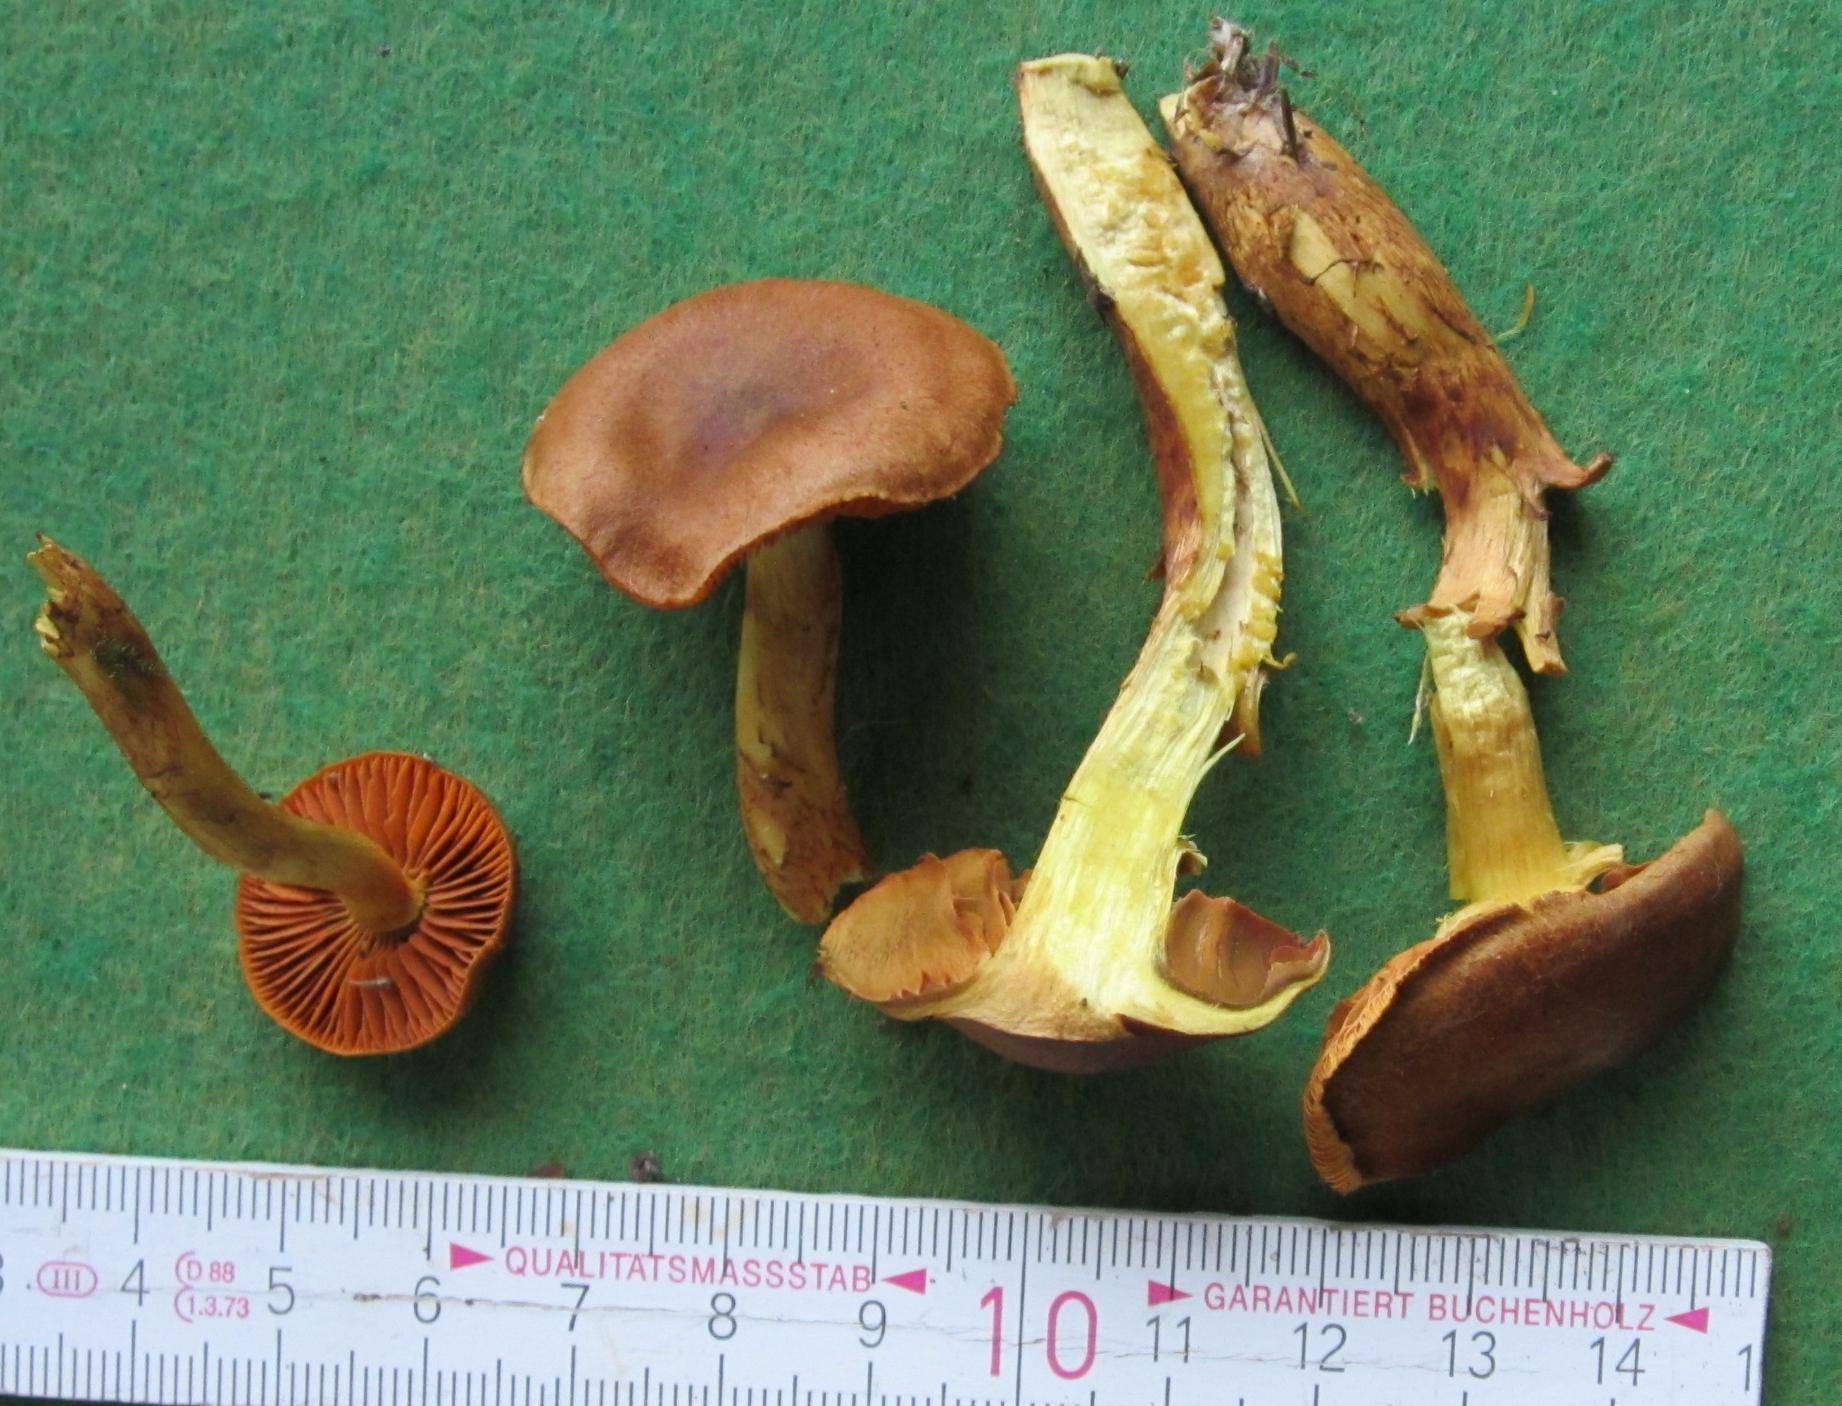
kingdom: Fungi
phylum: Basidiomycota
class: Agaricomycetes
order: Agaricales
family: Cortinariaceae
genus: Cortinarius
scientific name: Cortinarius malicorius
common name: grønkødet slørhat
